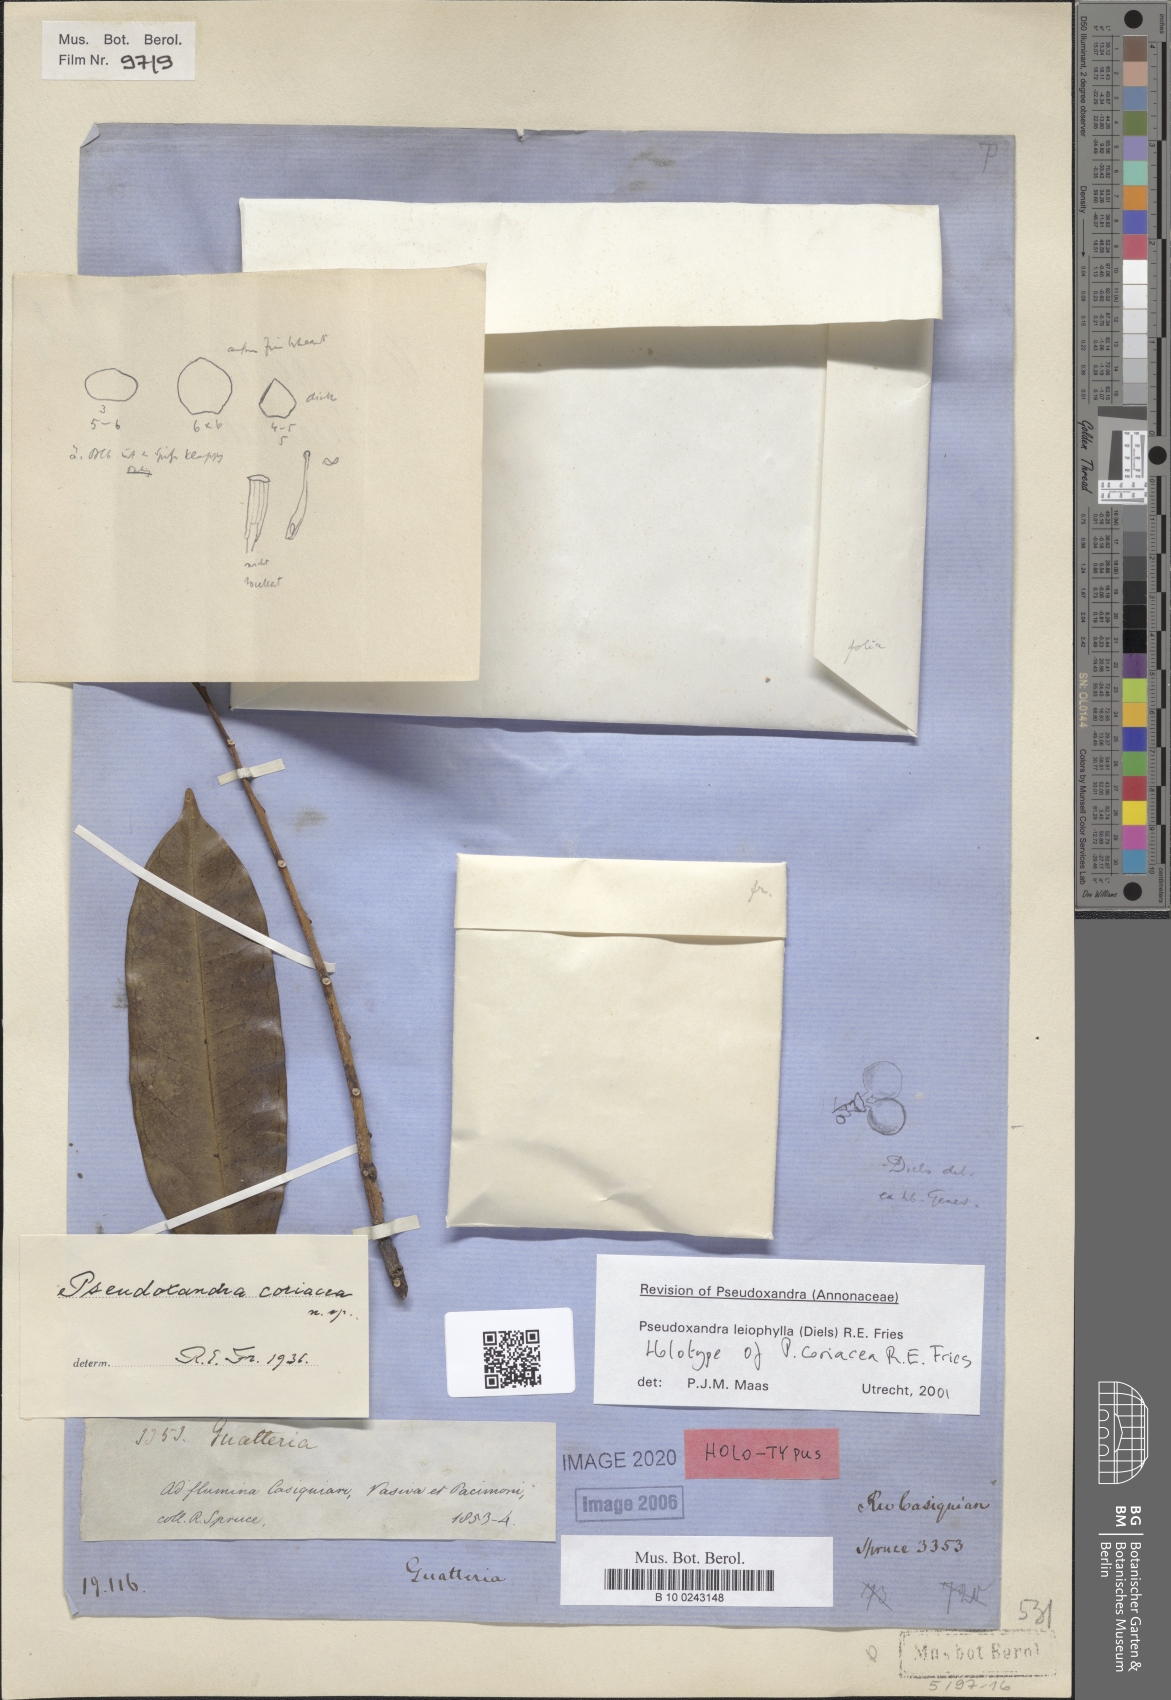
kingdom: Plantae
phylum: Tracheophyta
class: Magnoliopsida
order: Magnoliales
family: Annonaceae
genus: Pseudoxandra
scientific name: Pseudoxandra leiophylla
